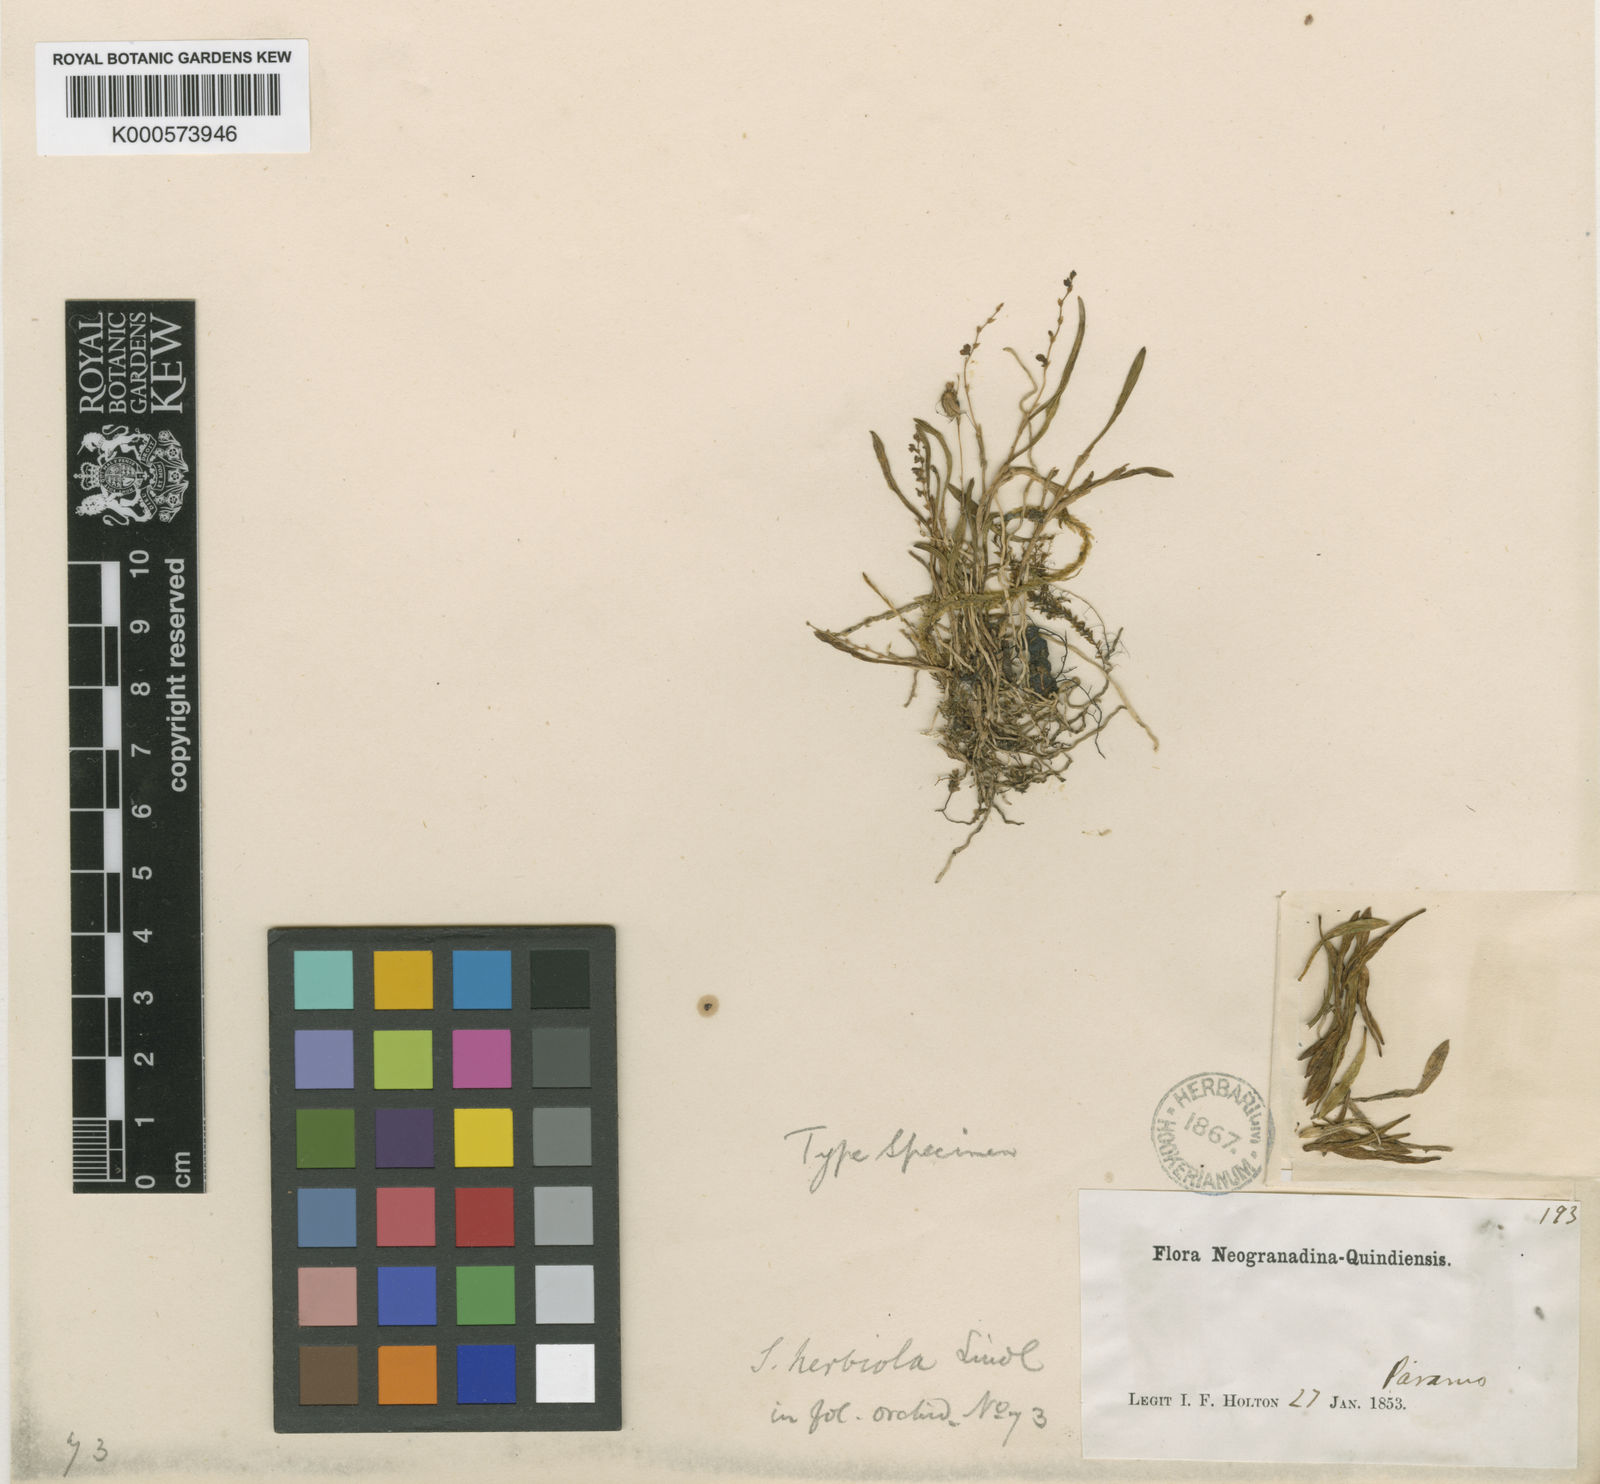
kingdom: Plantae
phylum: Tracheophyta
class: Liliopsida
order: Asparagales
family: Orchidaceae
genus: Stelis
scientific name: Stelis pusilla
